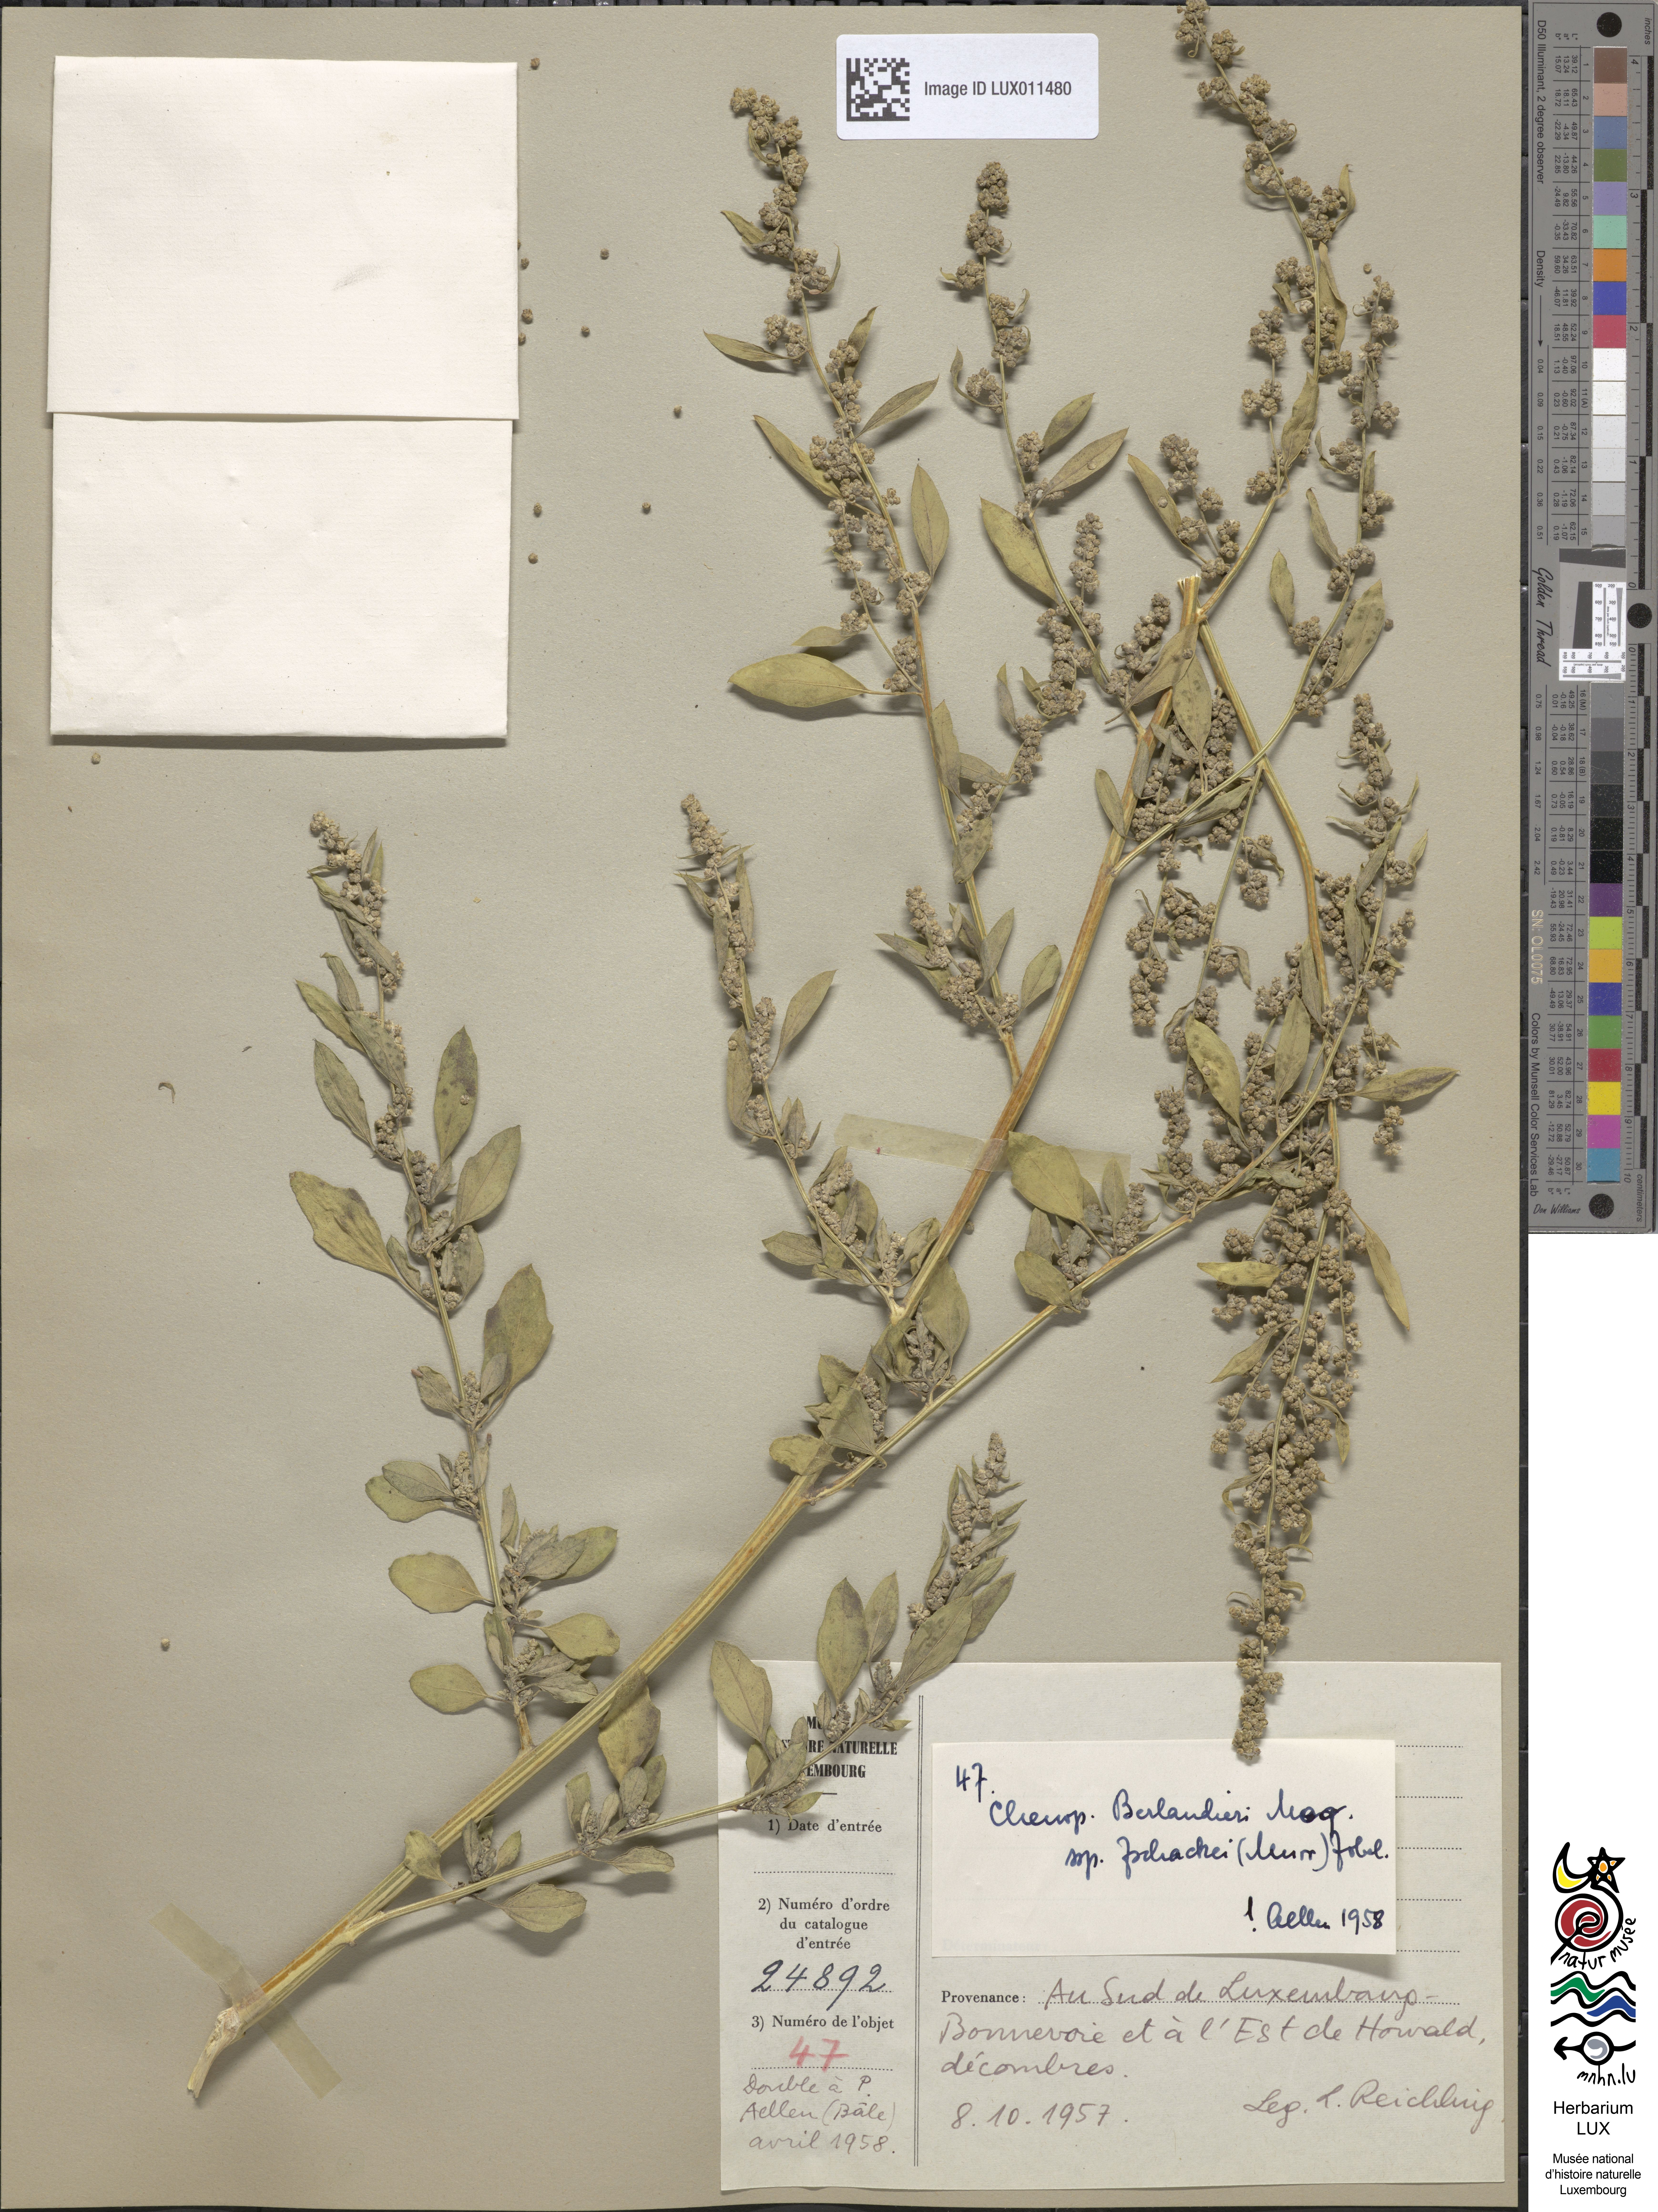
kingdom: Plantae
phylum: Tracheophyta
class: Magnoliopsida
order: Caryophyllales
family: Amaranthaceae
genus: Chenopodium
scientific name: Chenopodium berlandieri
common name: Pit-seed goosefoot
